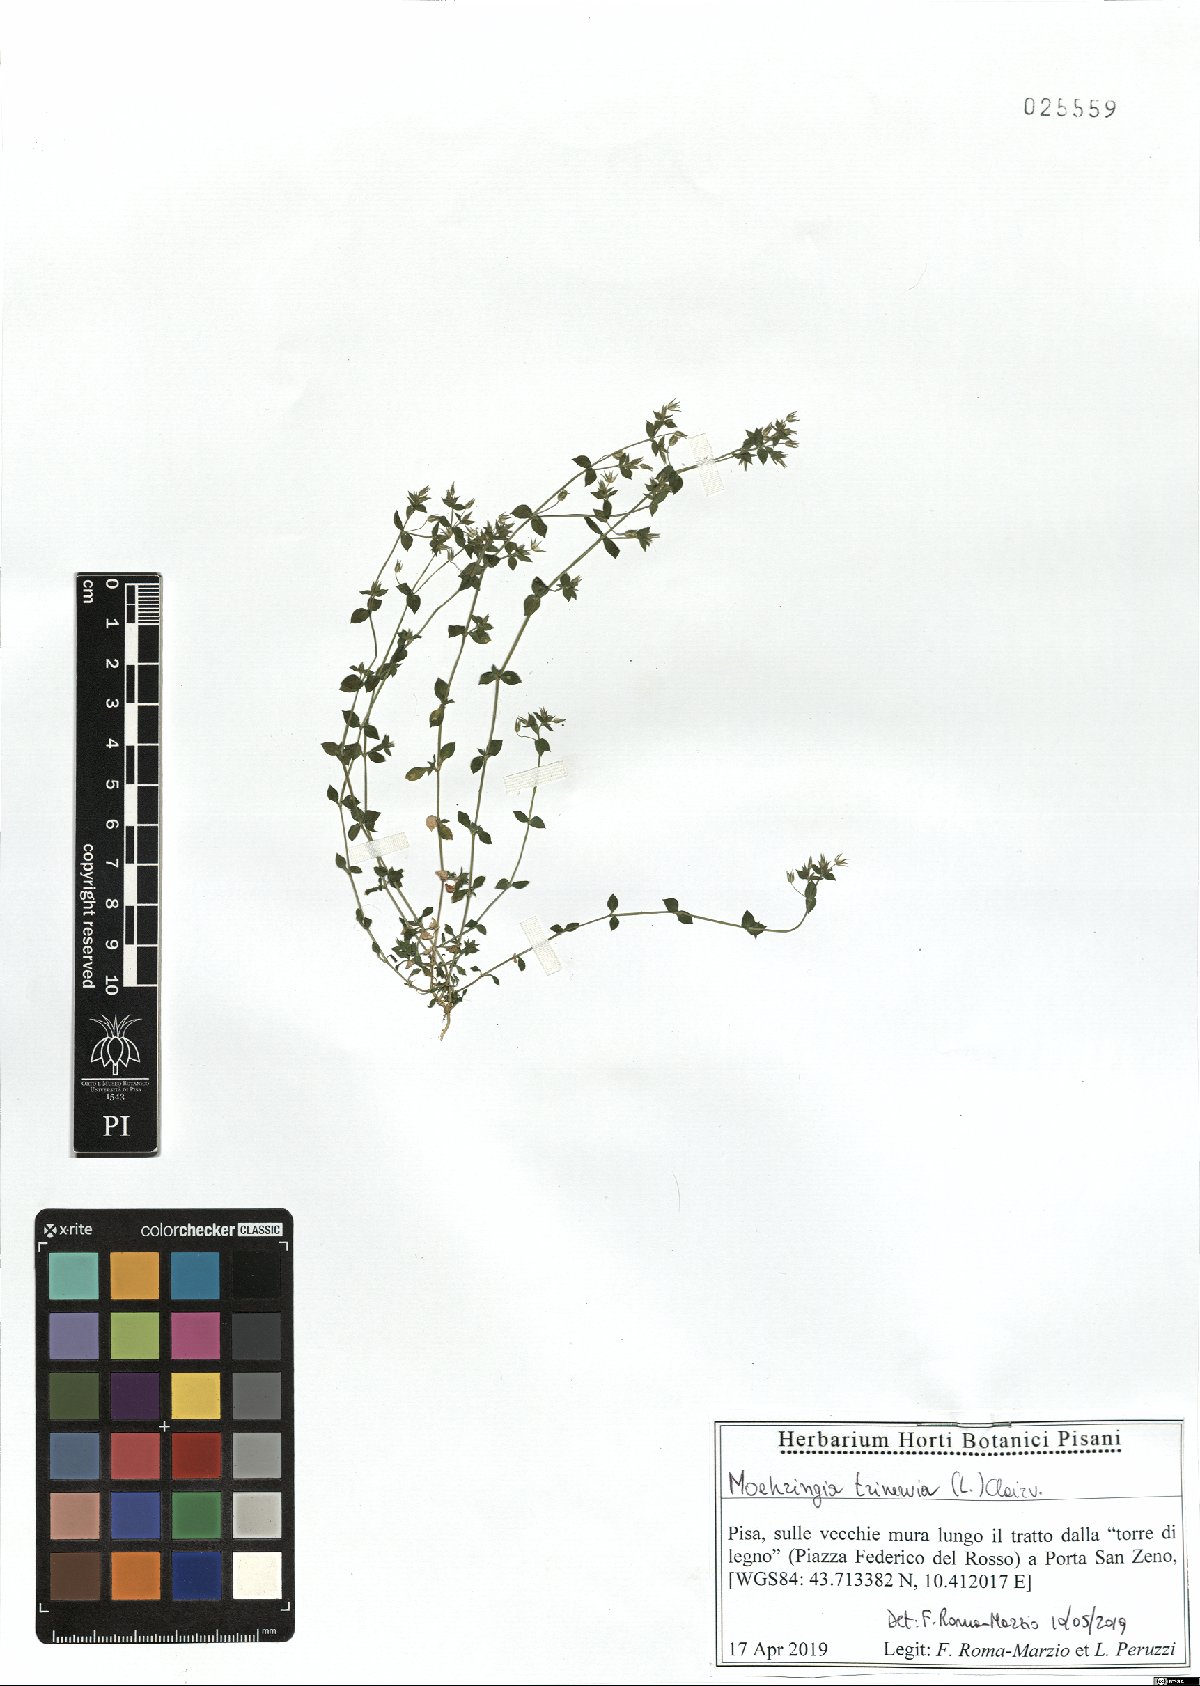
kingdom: Plantae
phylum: Tracheophyta
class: Magnoliopsida
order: Caryophyllales
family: Caryophyllaceae
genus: Moehringia
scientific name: Moehringia trinervia
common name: Three-nerved sandwort
